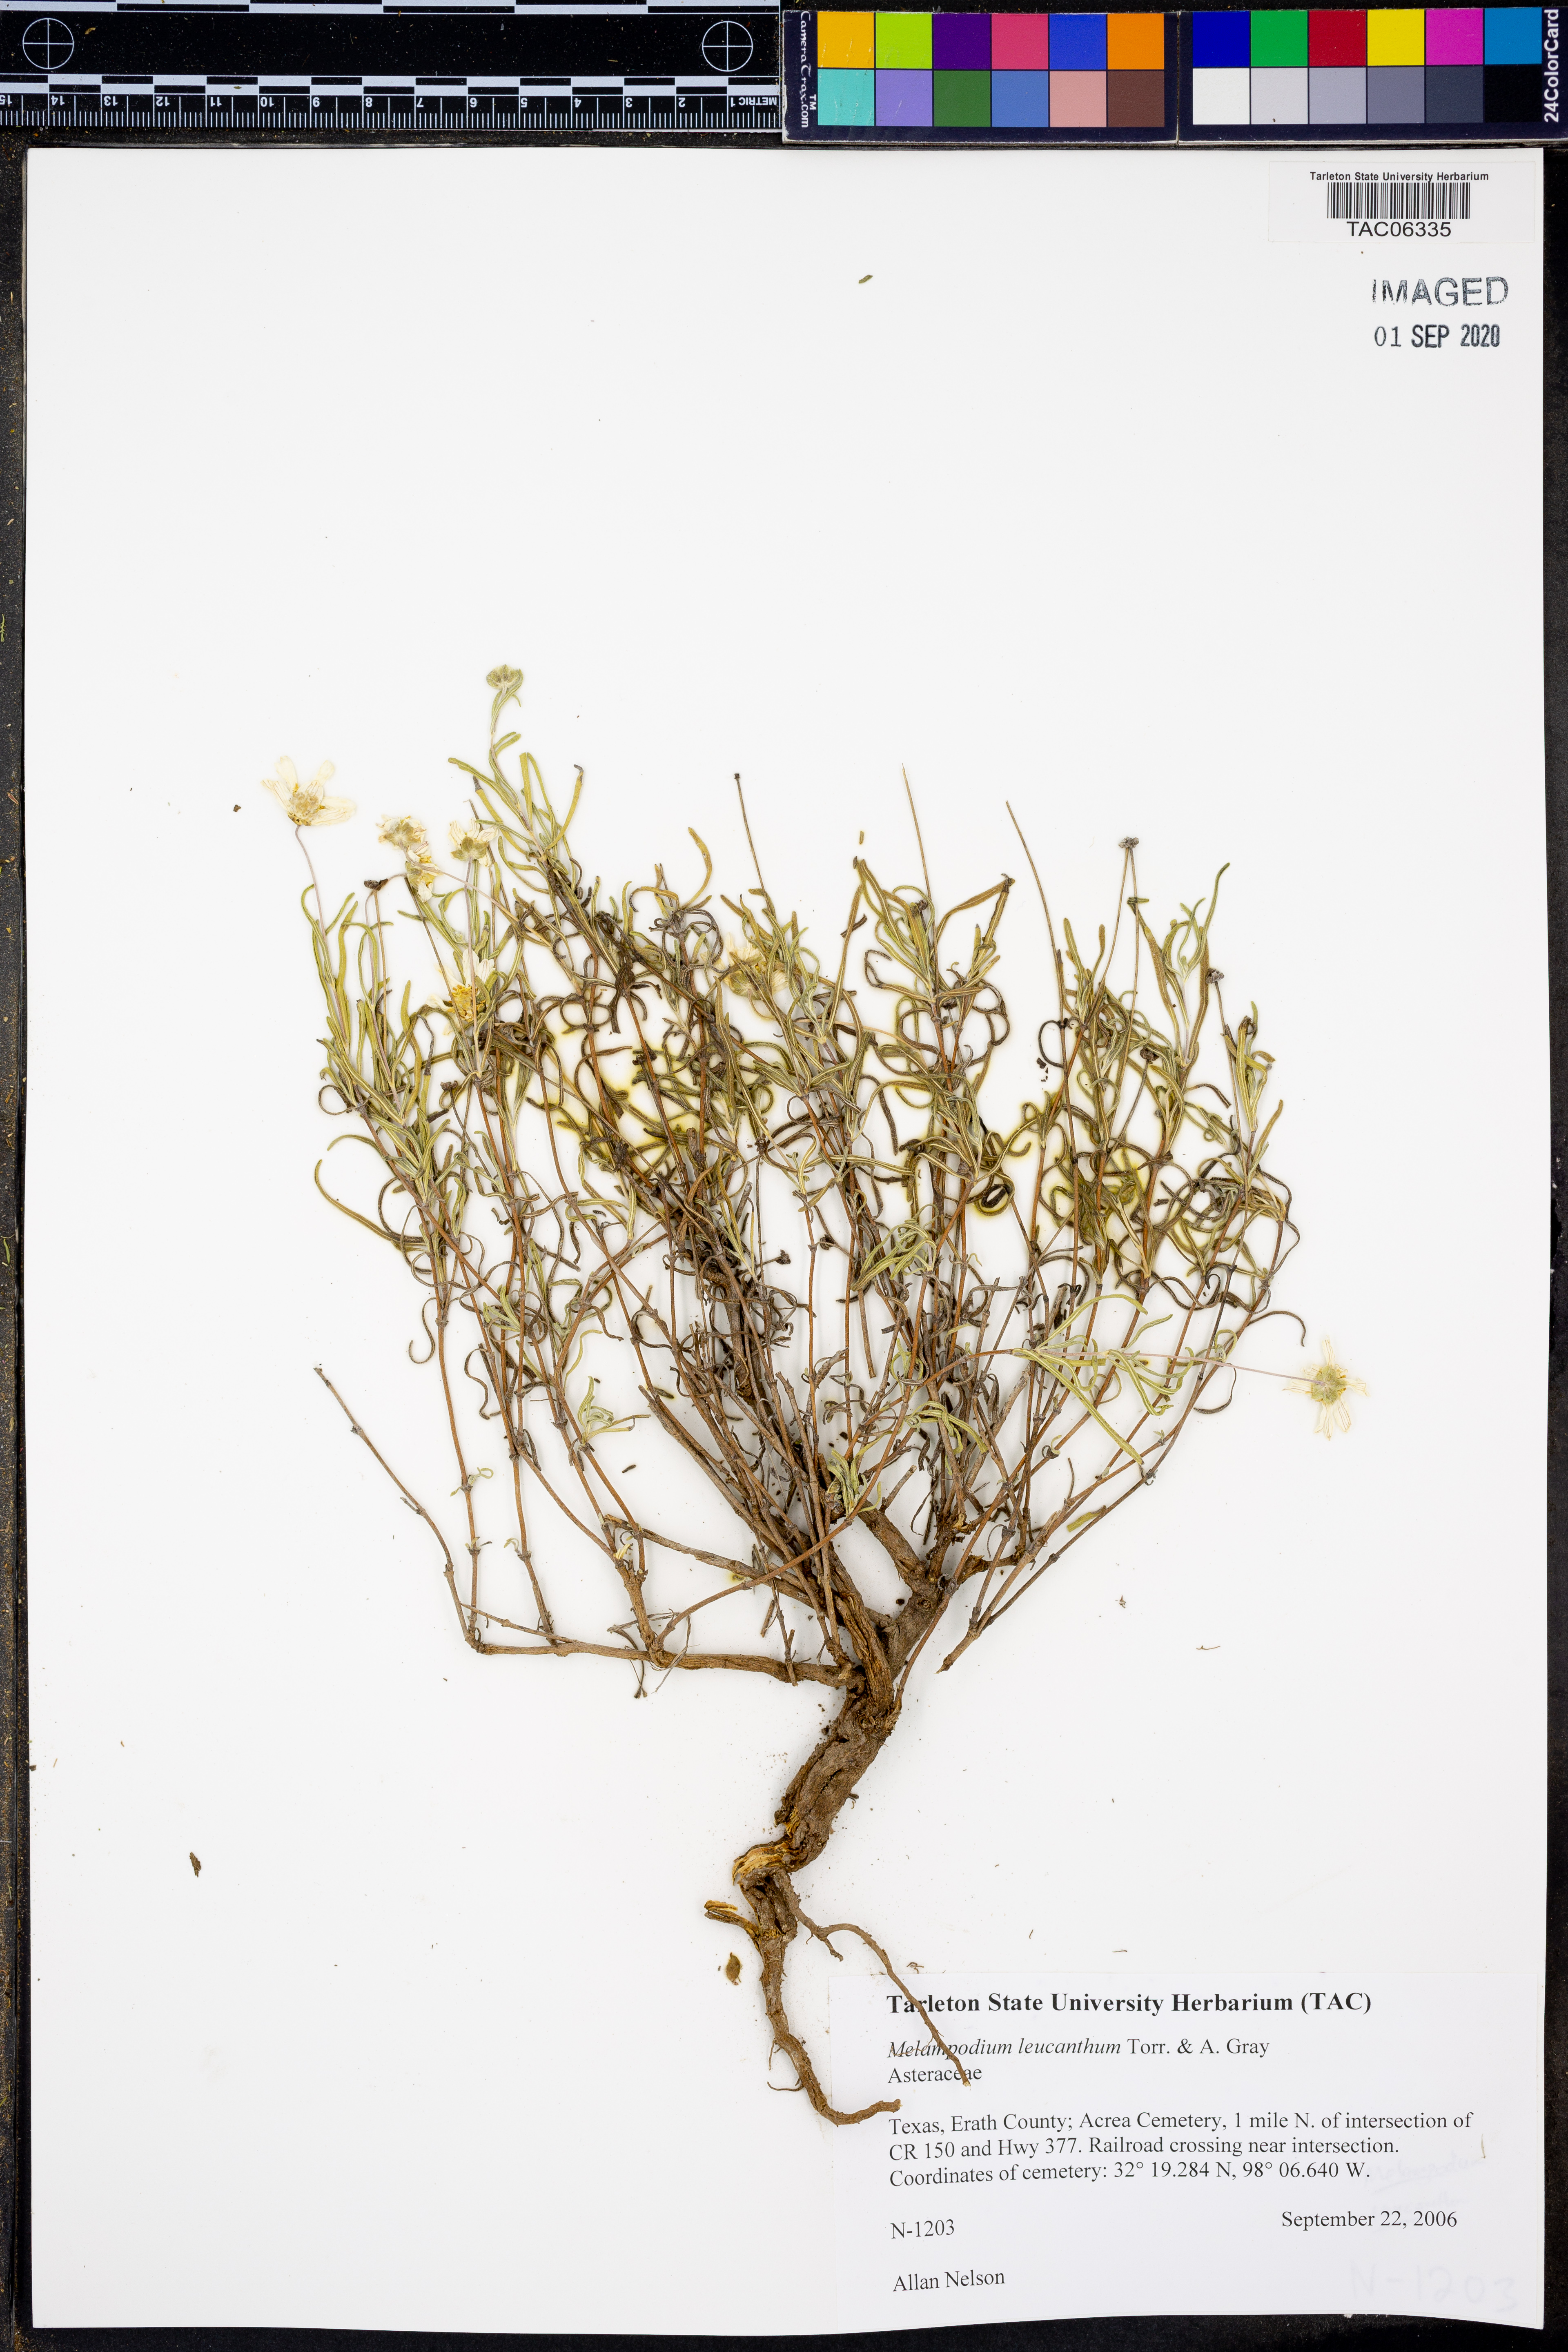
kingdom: Plantae
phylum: Tracheophyta
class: Magnoliopsida
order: Asterales
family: Asteraceae
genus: Melampodium
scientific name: Melampodium leucanthum
